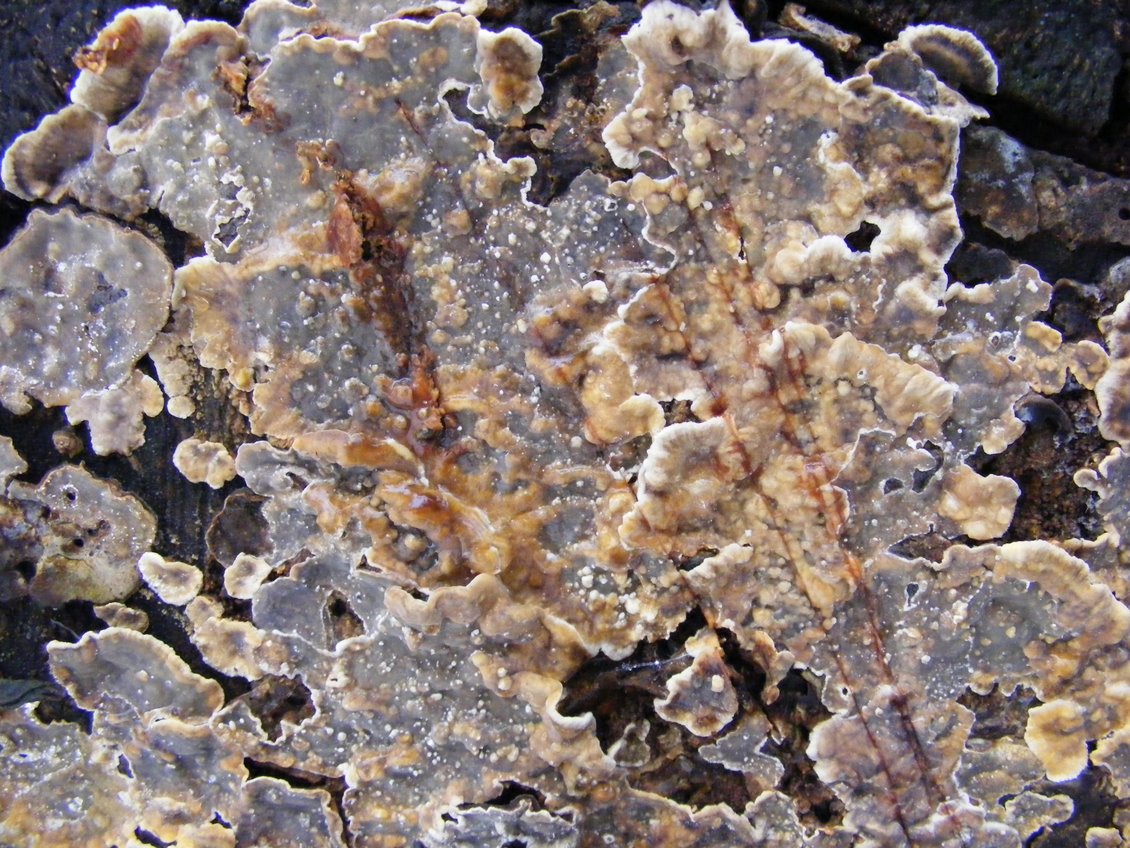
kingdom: Fungi
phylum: Basidiomycota
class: Agaricomycetes
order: Russulales
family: Stereaceae
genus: Stereum
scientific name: Stereum rugosum
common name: rynket lædersvamp
